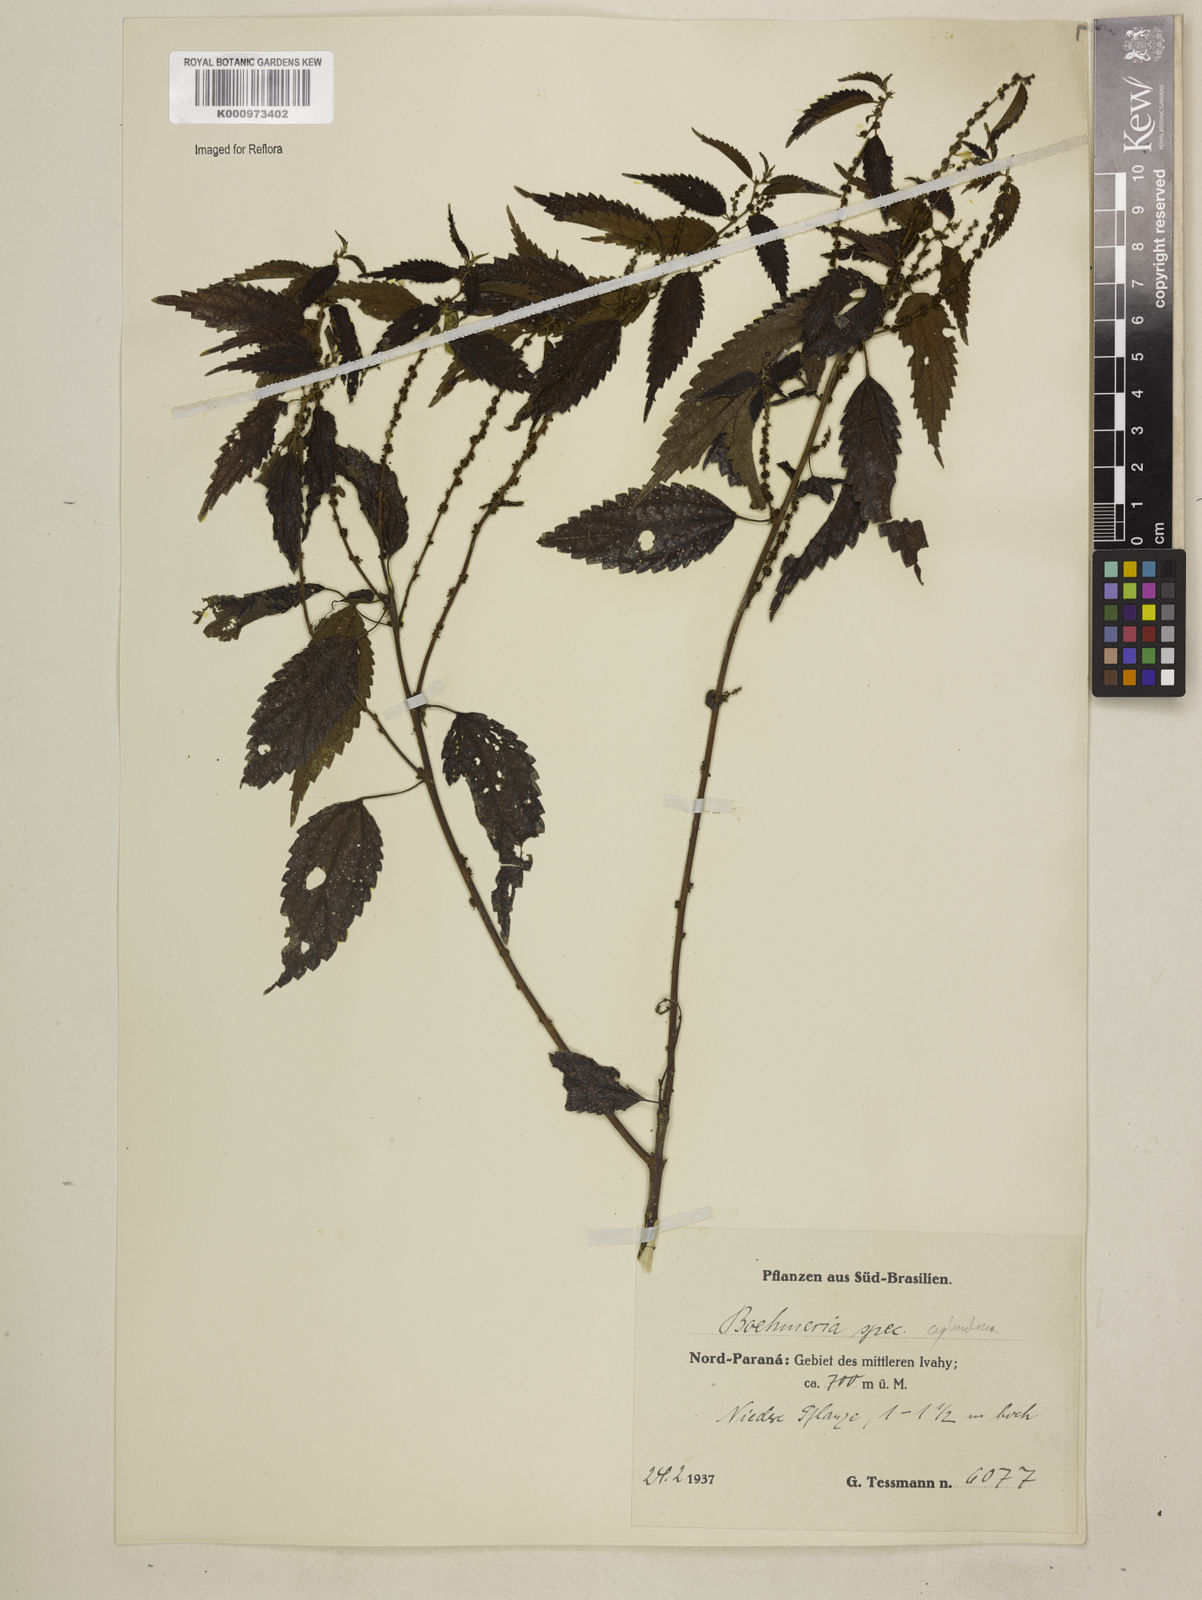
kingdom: Plantae
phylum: Tracheophyta
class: Magnoliopsida
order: Rosales
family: Urticaceae
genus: Boehmeria
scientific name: Boehmeria cylindrica
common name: Bog-hemp
